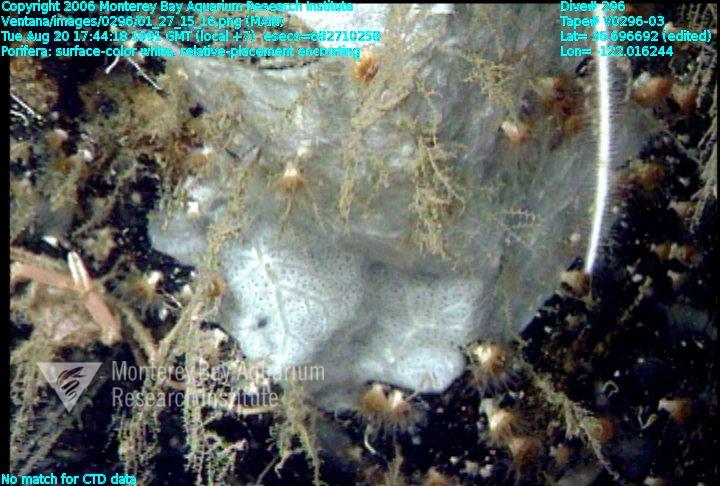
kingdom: Animalia
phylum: Porifera
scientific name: Porifera
